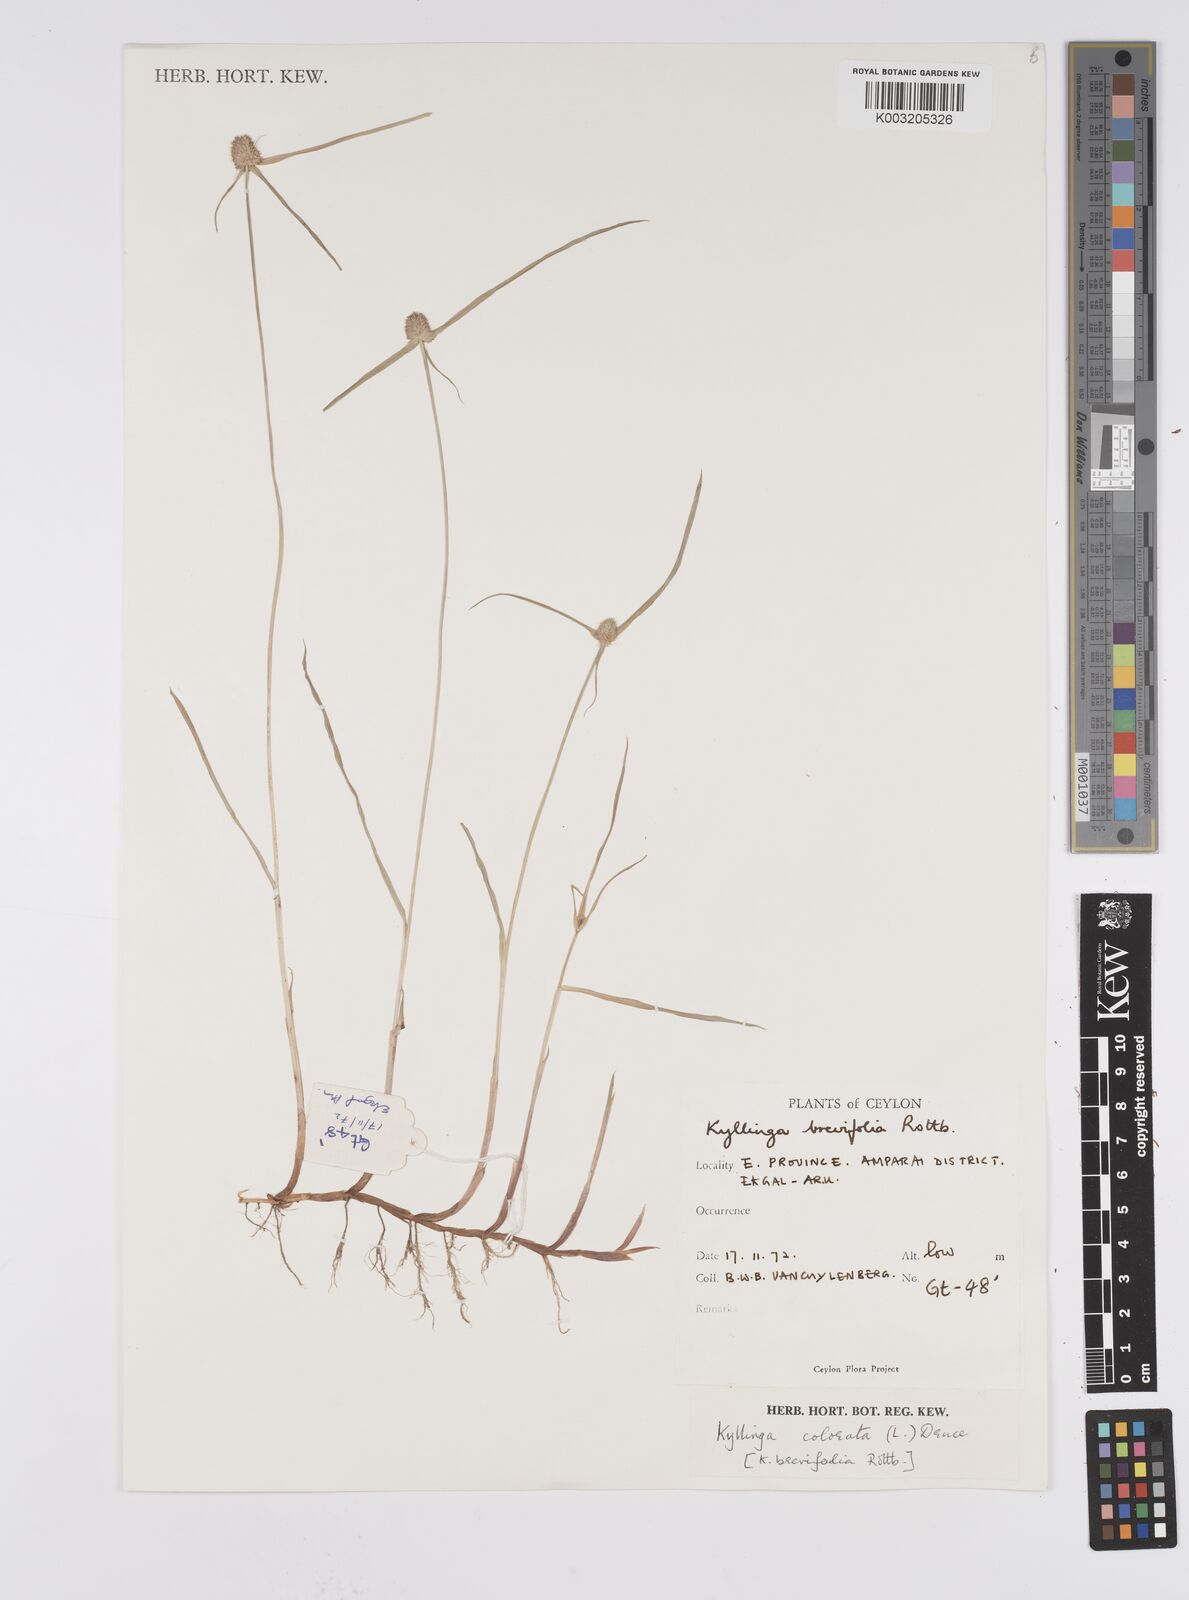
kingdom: Plantae
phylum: Tracheophyta
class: Liliopsida
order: Poales
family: Cyperaceae
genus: Cyperus
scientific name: Cyperus brevifolius
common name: Globe kyllinga
